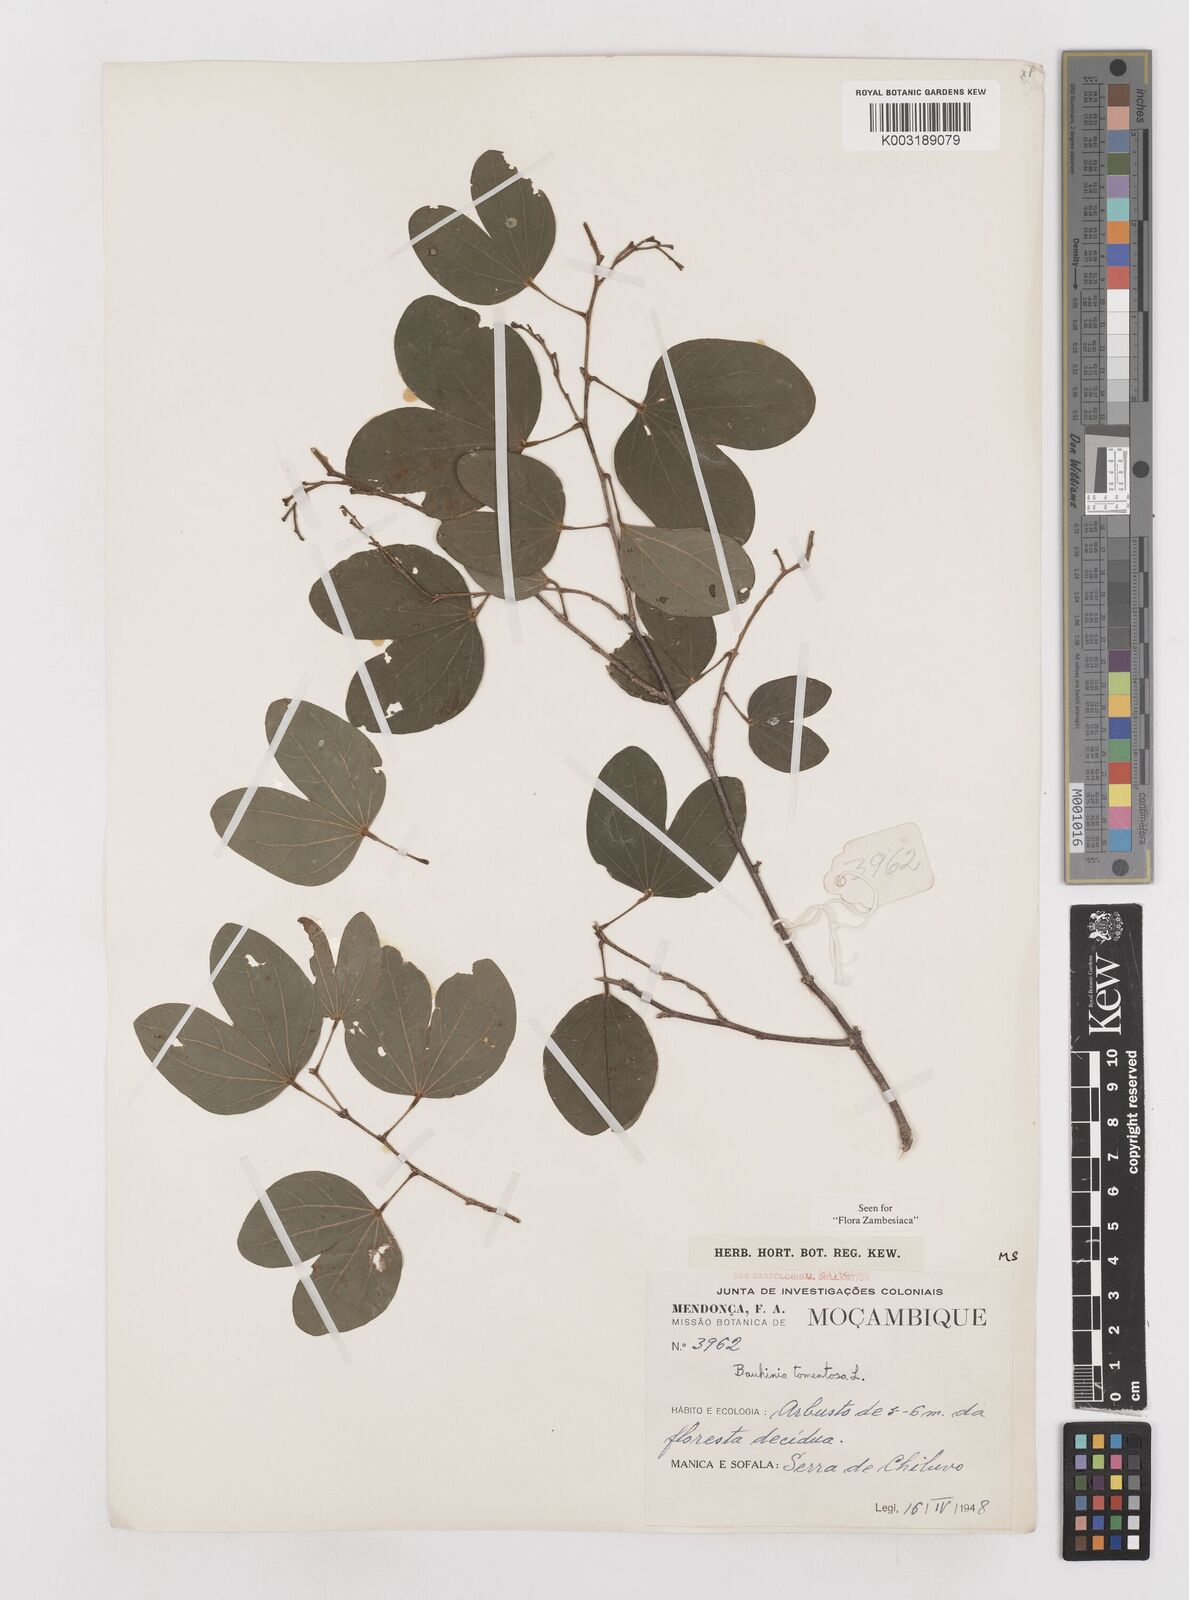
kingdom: Plantae
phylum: Tracheophyta
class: Magnoliopsida
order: Fabales
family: Fabaceae
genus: Bauhinia
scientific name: Bauhinia tomentosa
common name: Bell bauhinia
